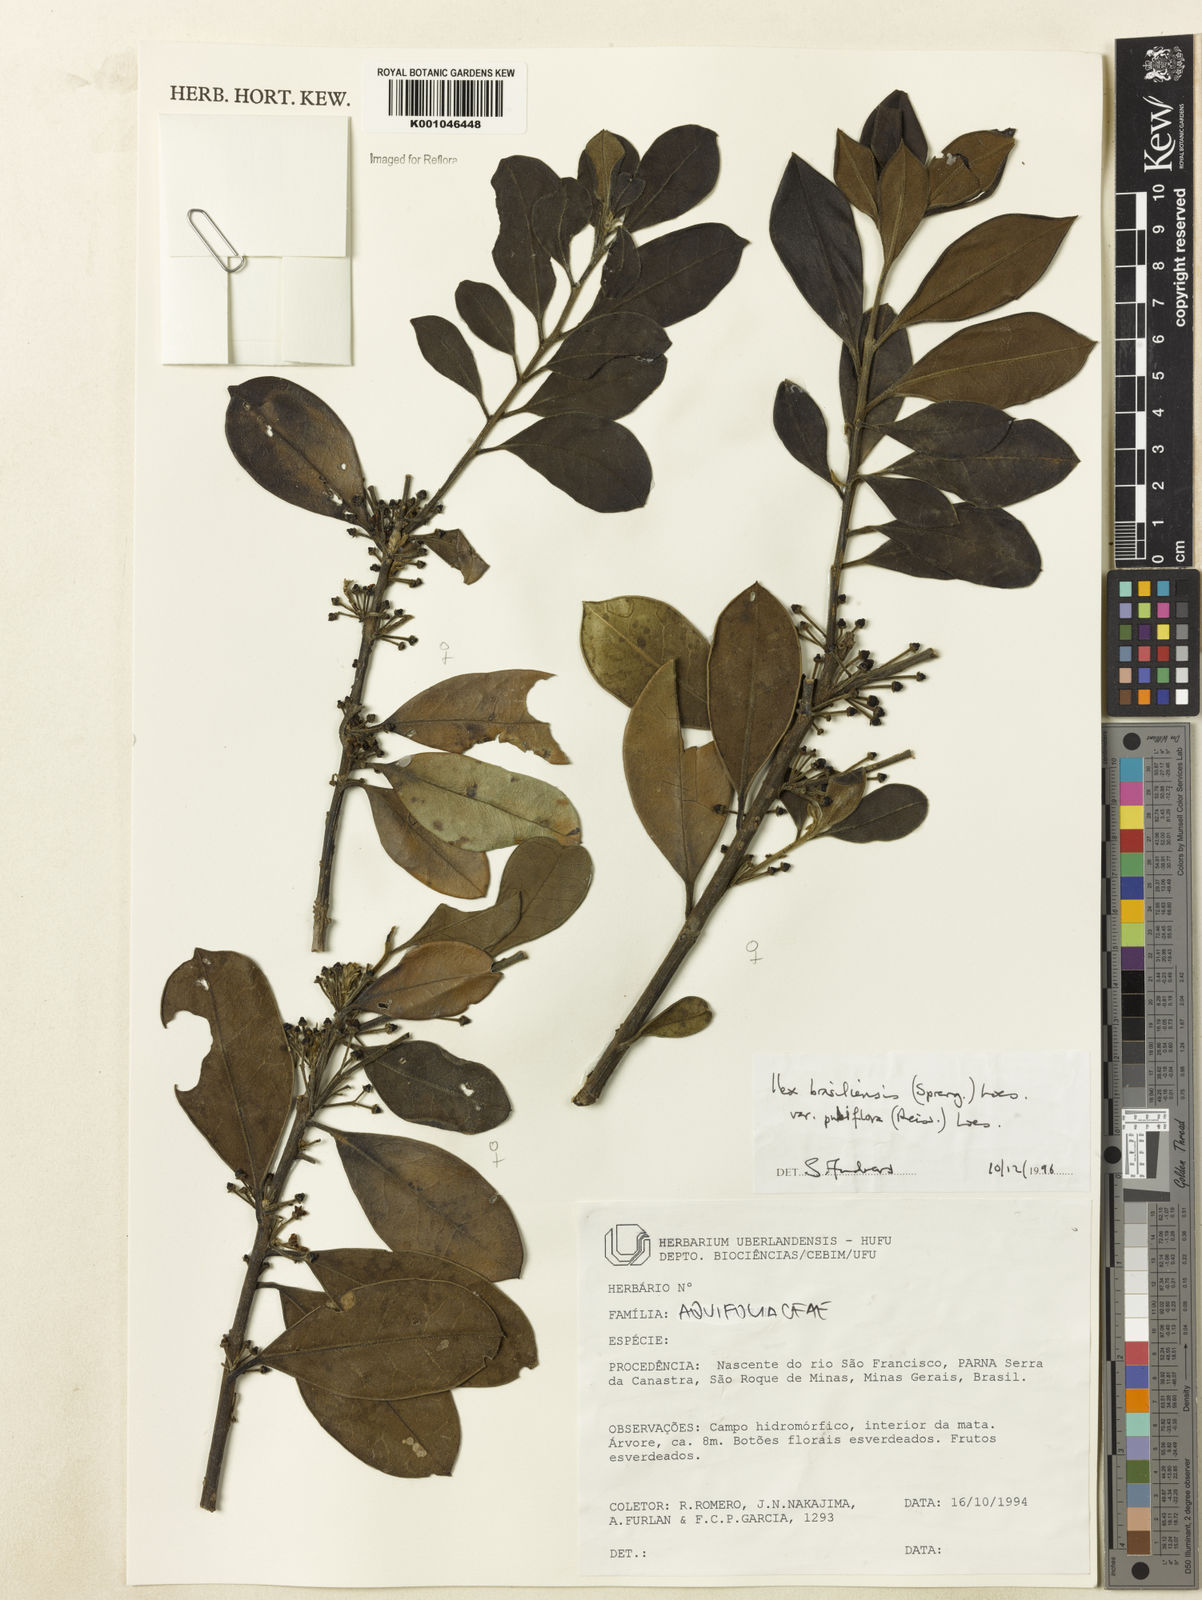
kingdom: Plantae
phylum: Tracheophyta
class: Magnoliopsida
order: Aquifoliales
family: Aquifoliaceae
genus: Ilex
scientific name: Ilex brasiliensis
